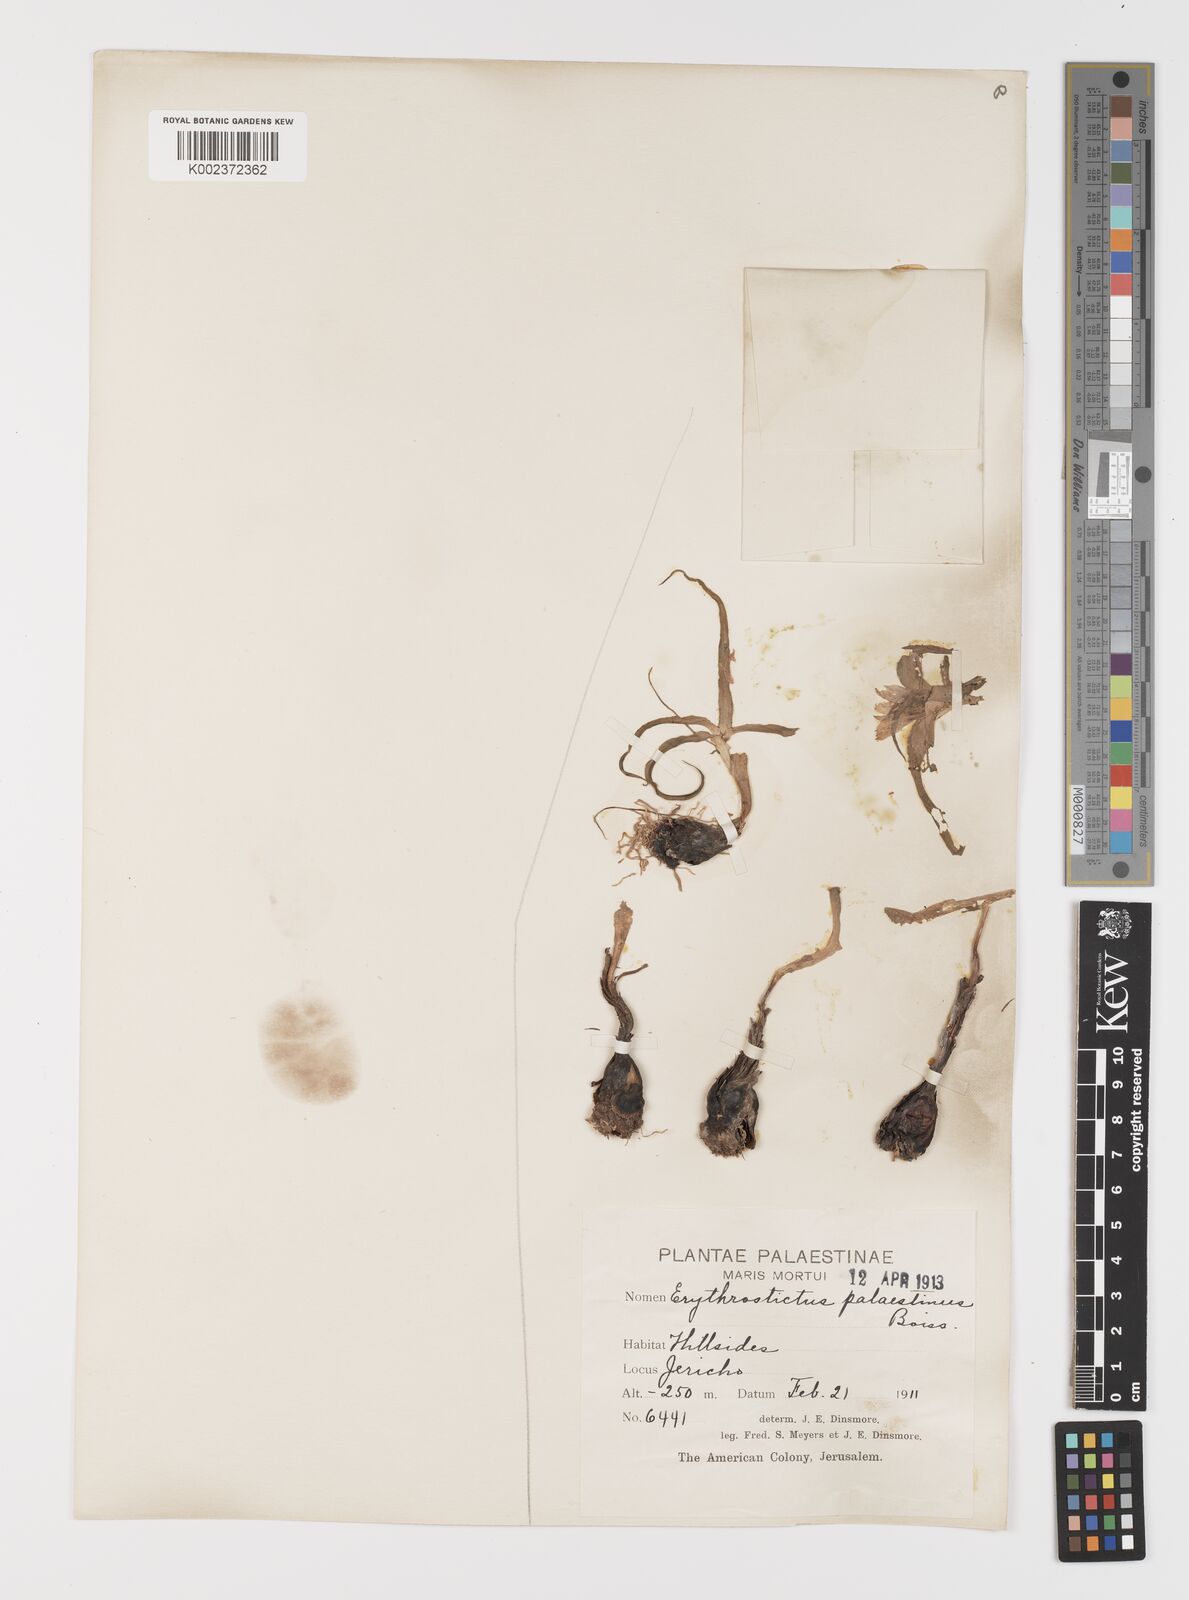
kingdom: Plantae
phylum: Tracheophyta
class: Liliopsida
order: Liliales
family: Colchicaceae
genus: Colchicum
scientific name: Colchicum palaestinum
